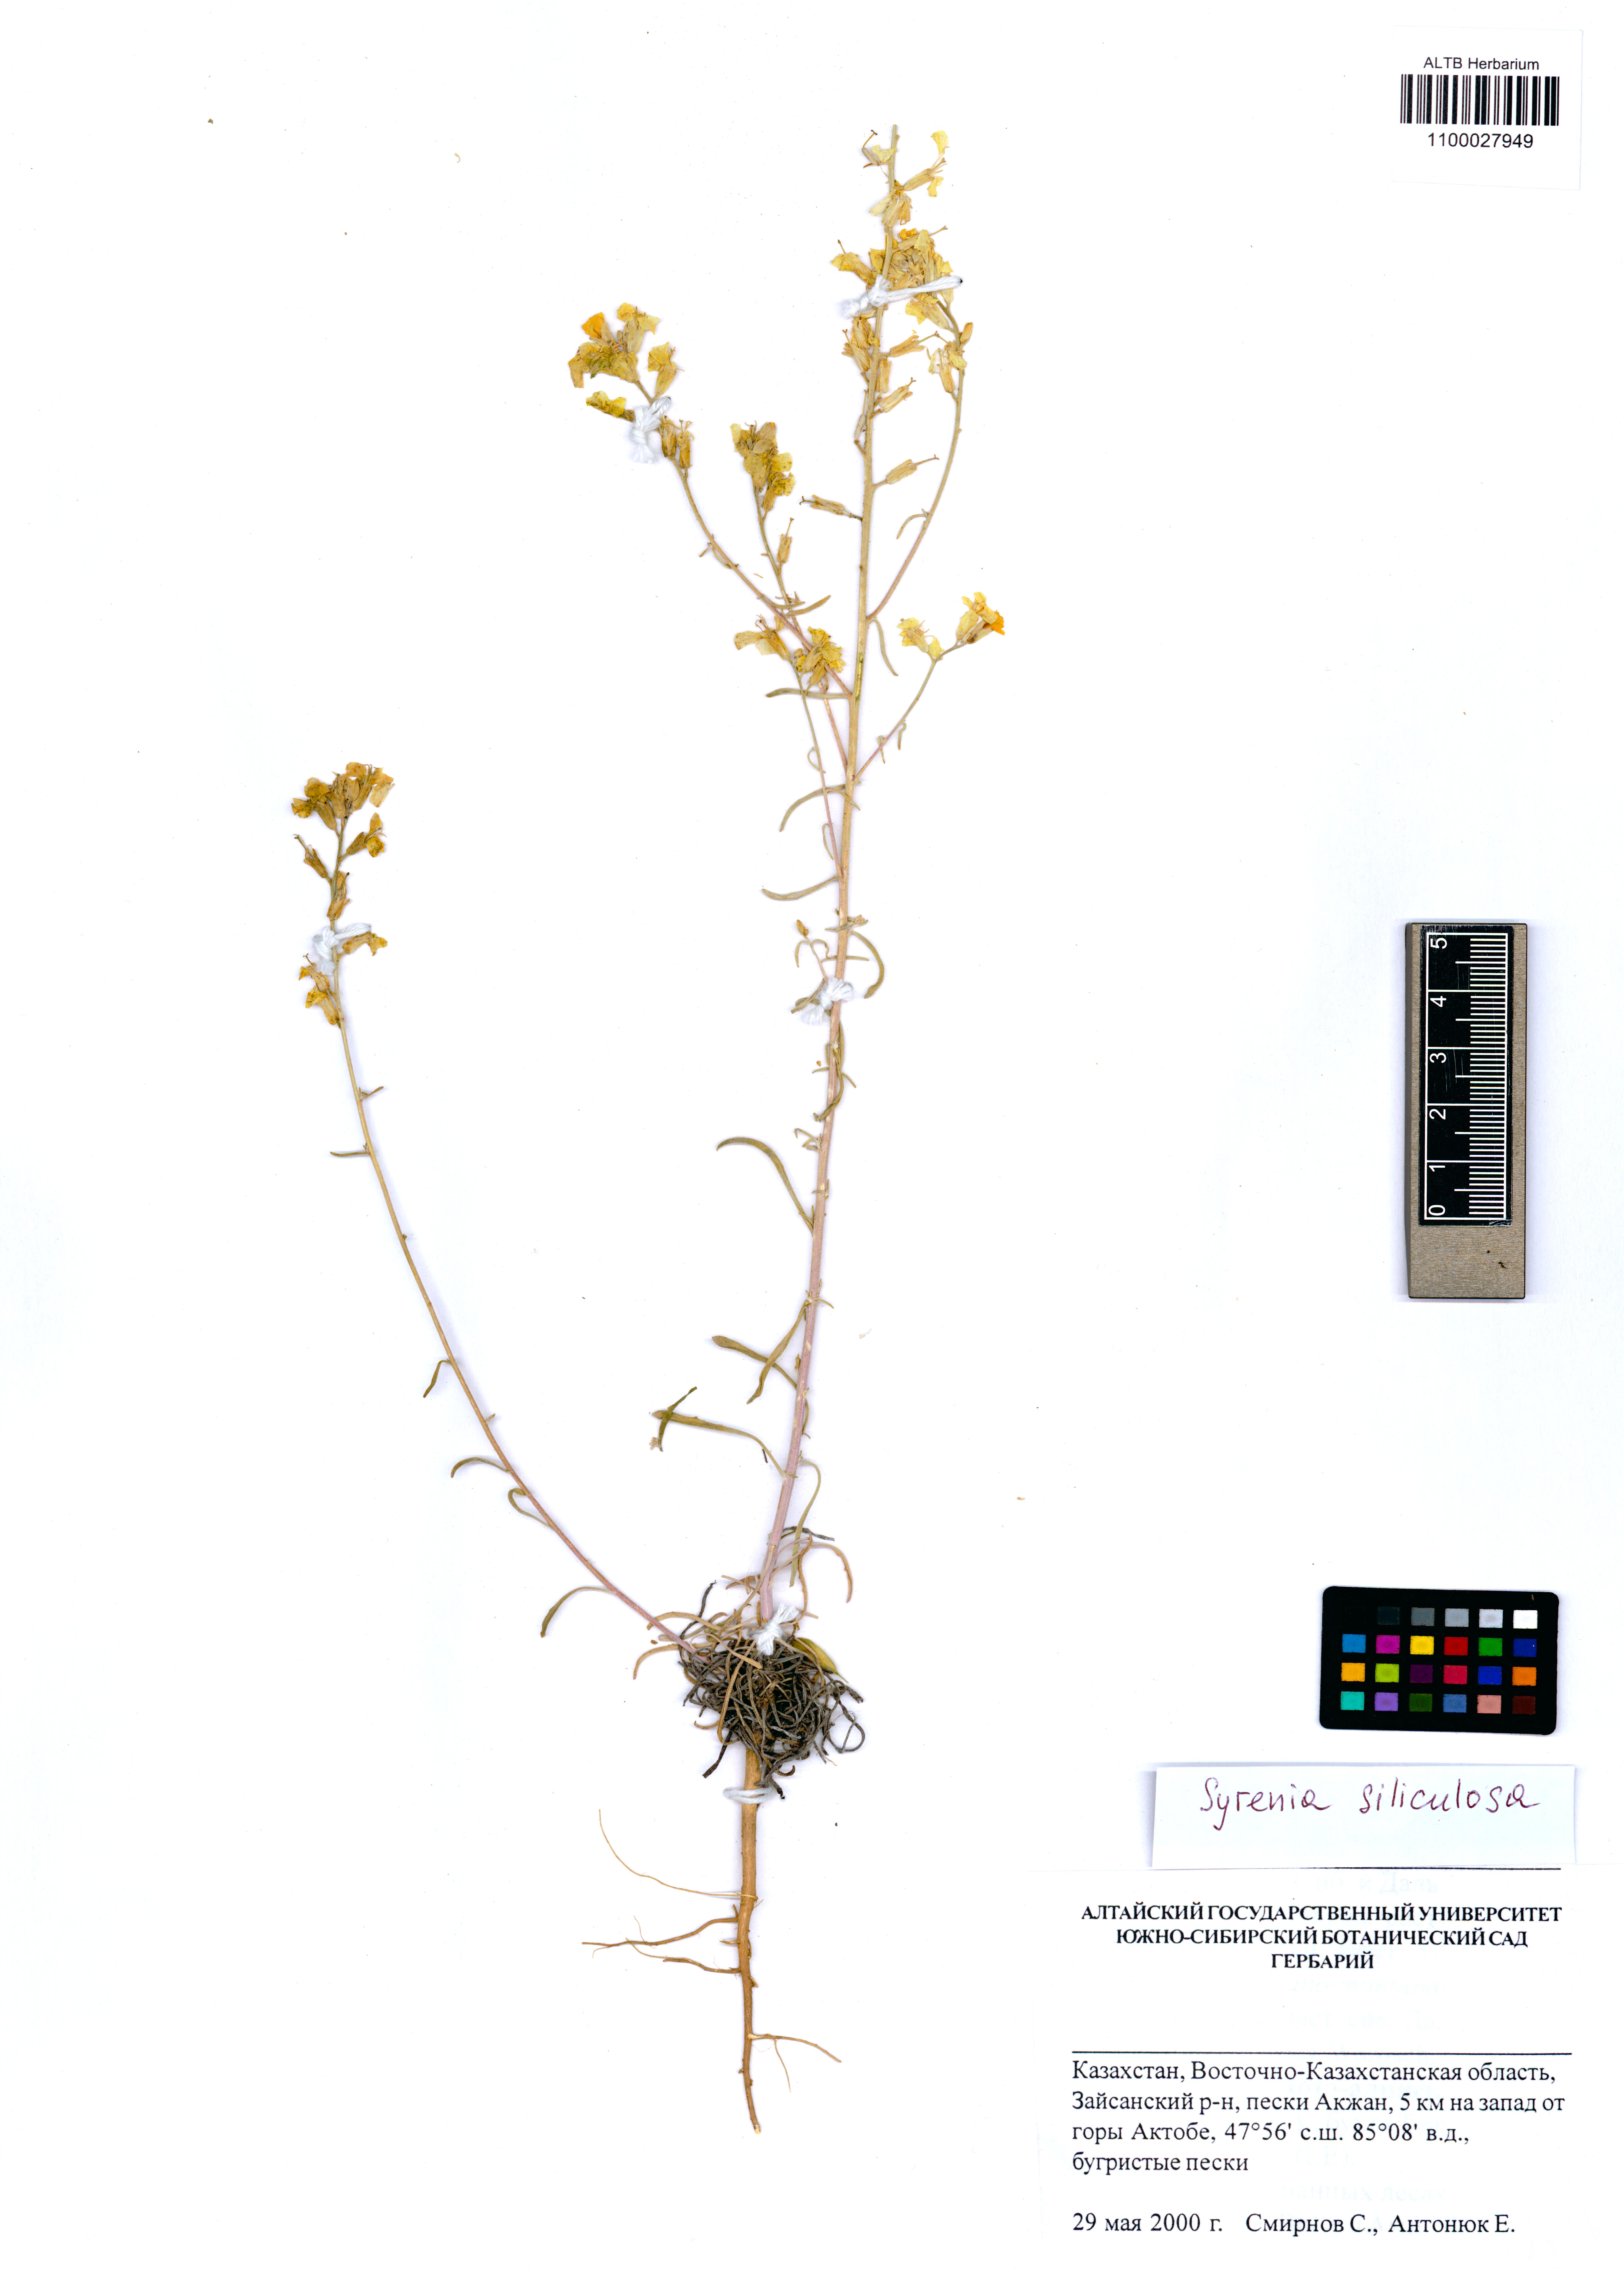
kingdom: Plantae
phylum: Tracheophyta
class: Magnoliopsida
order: Brassicales
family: Brassicaceae
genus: Syrenia
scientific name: Syrenia siliculosa
